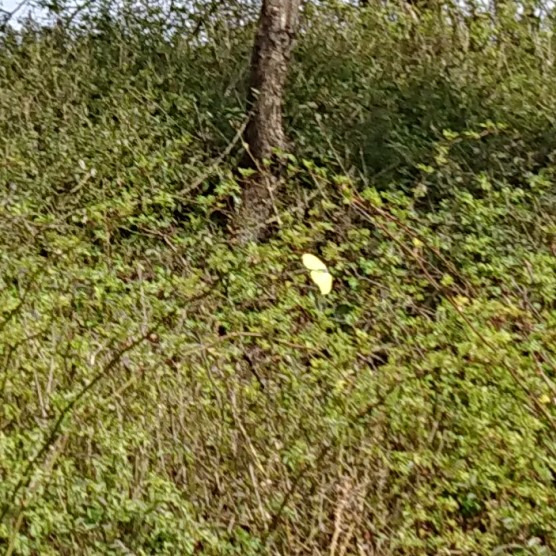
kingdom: Animalia
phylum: Arthropoda
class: Insecta
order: Lepidoptera
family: Pieridae
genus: Gonepteryx
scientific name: Gonepteryx rhamni
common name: Citronsommerfugl
